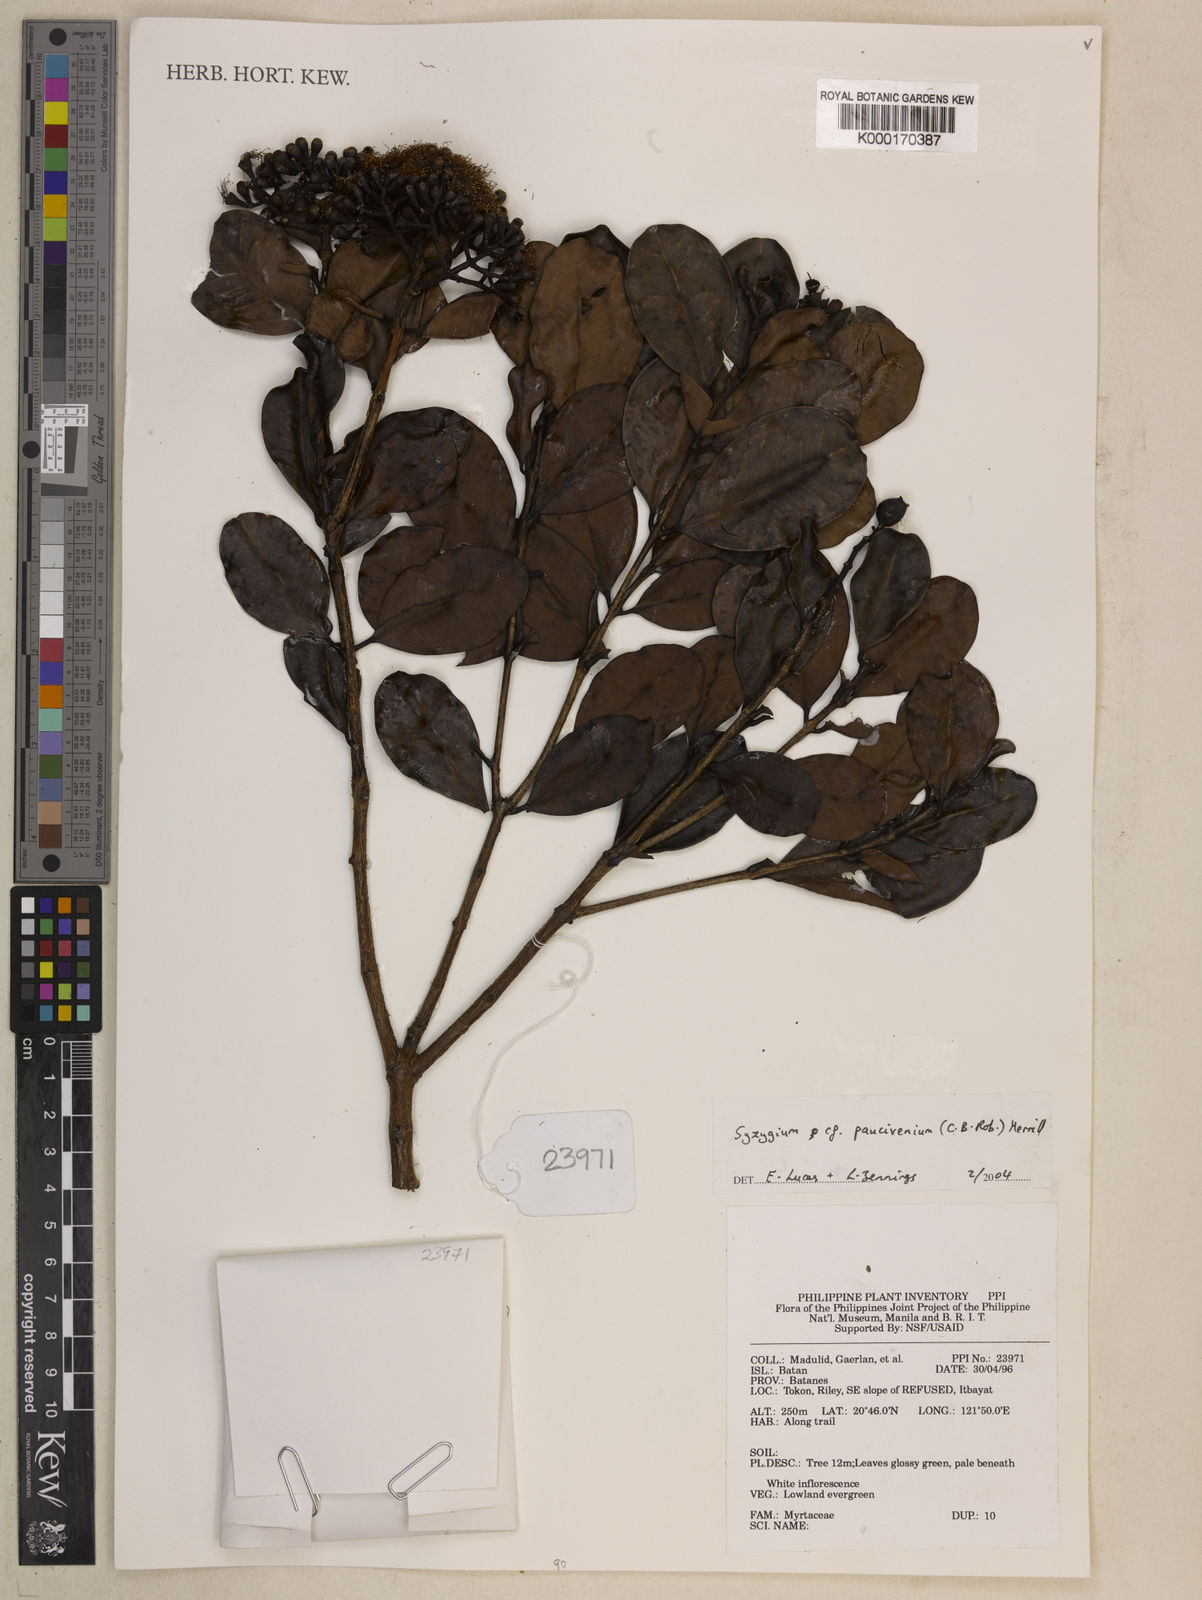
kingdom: Plantae
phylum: Tracheophyta
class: Magnoliopsida
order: Myrtales
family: Myrtaceae
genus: Syzygium
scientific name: Syzygium paucivenium
